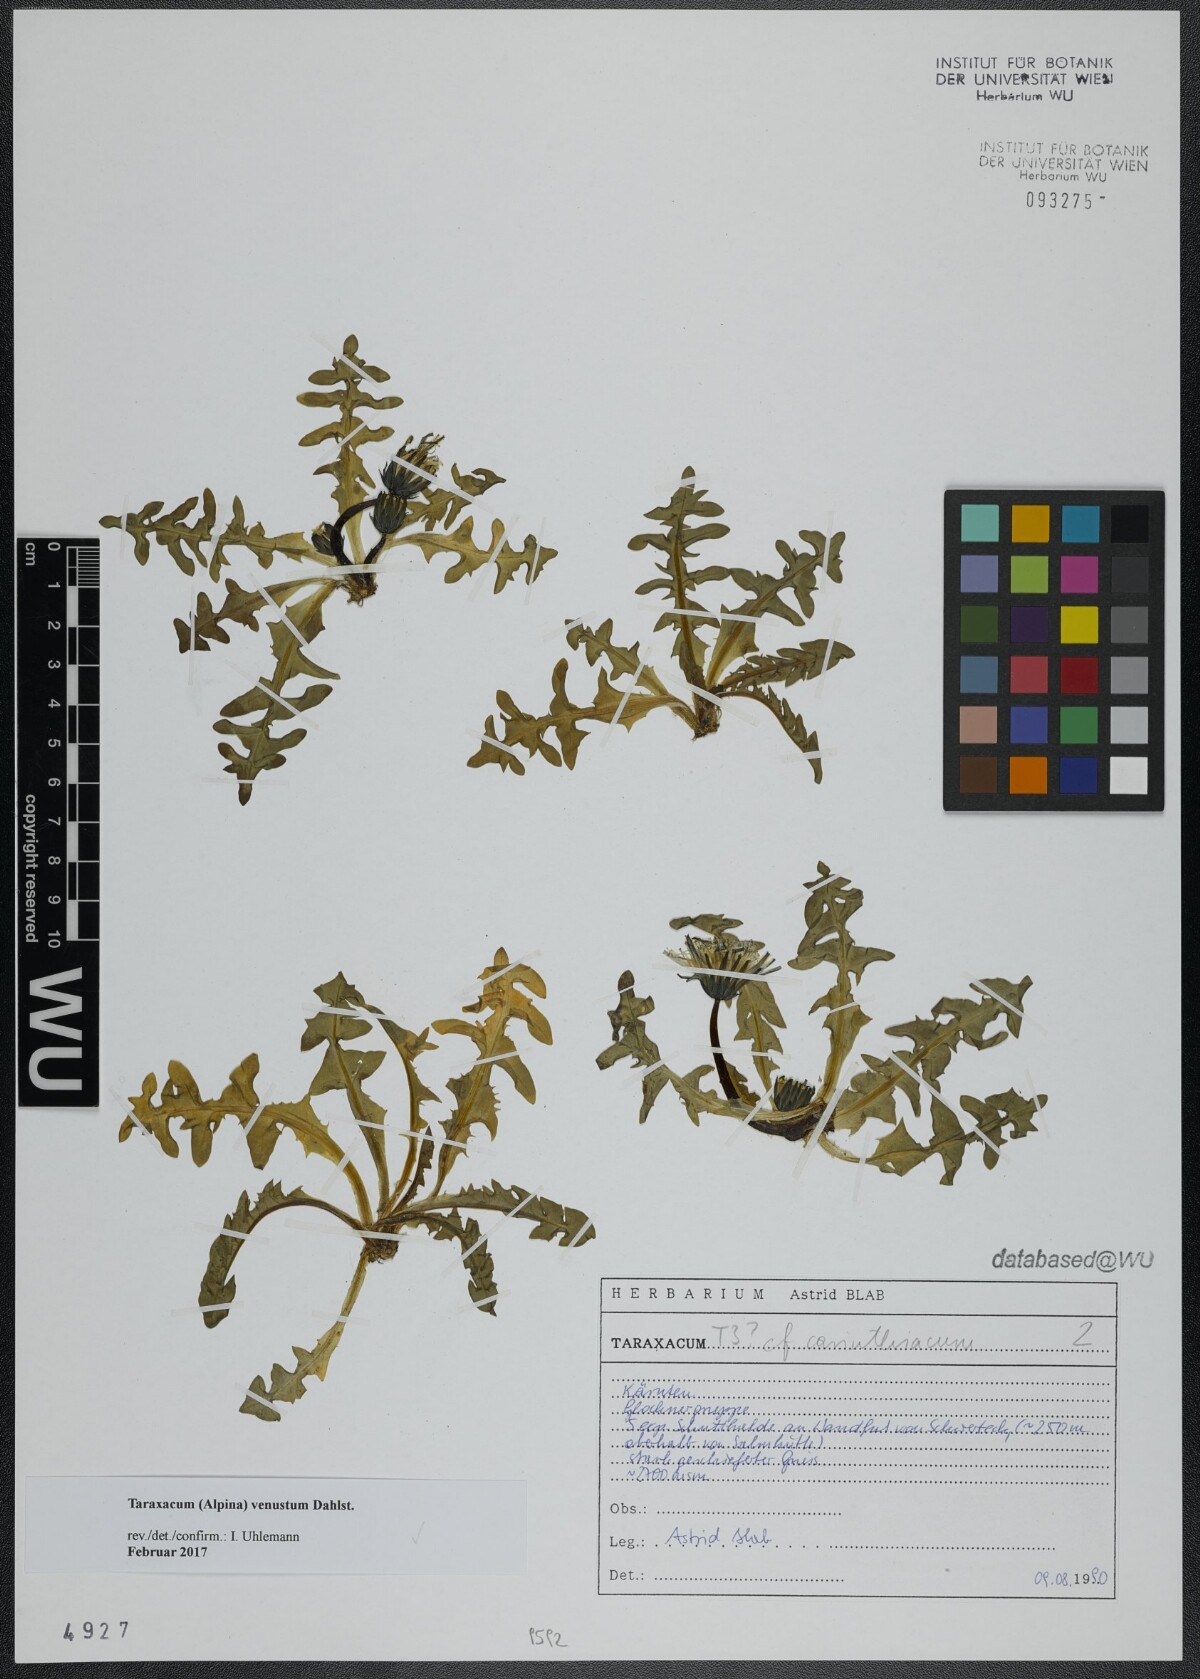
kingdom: Plantae
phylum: Tracheophyta
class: Magnoliopsida
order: Asterales
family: Asteraceae
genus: Taraxacum
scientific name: Taraxacum venustum
